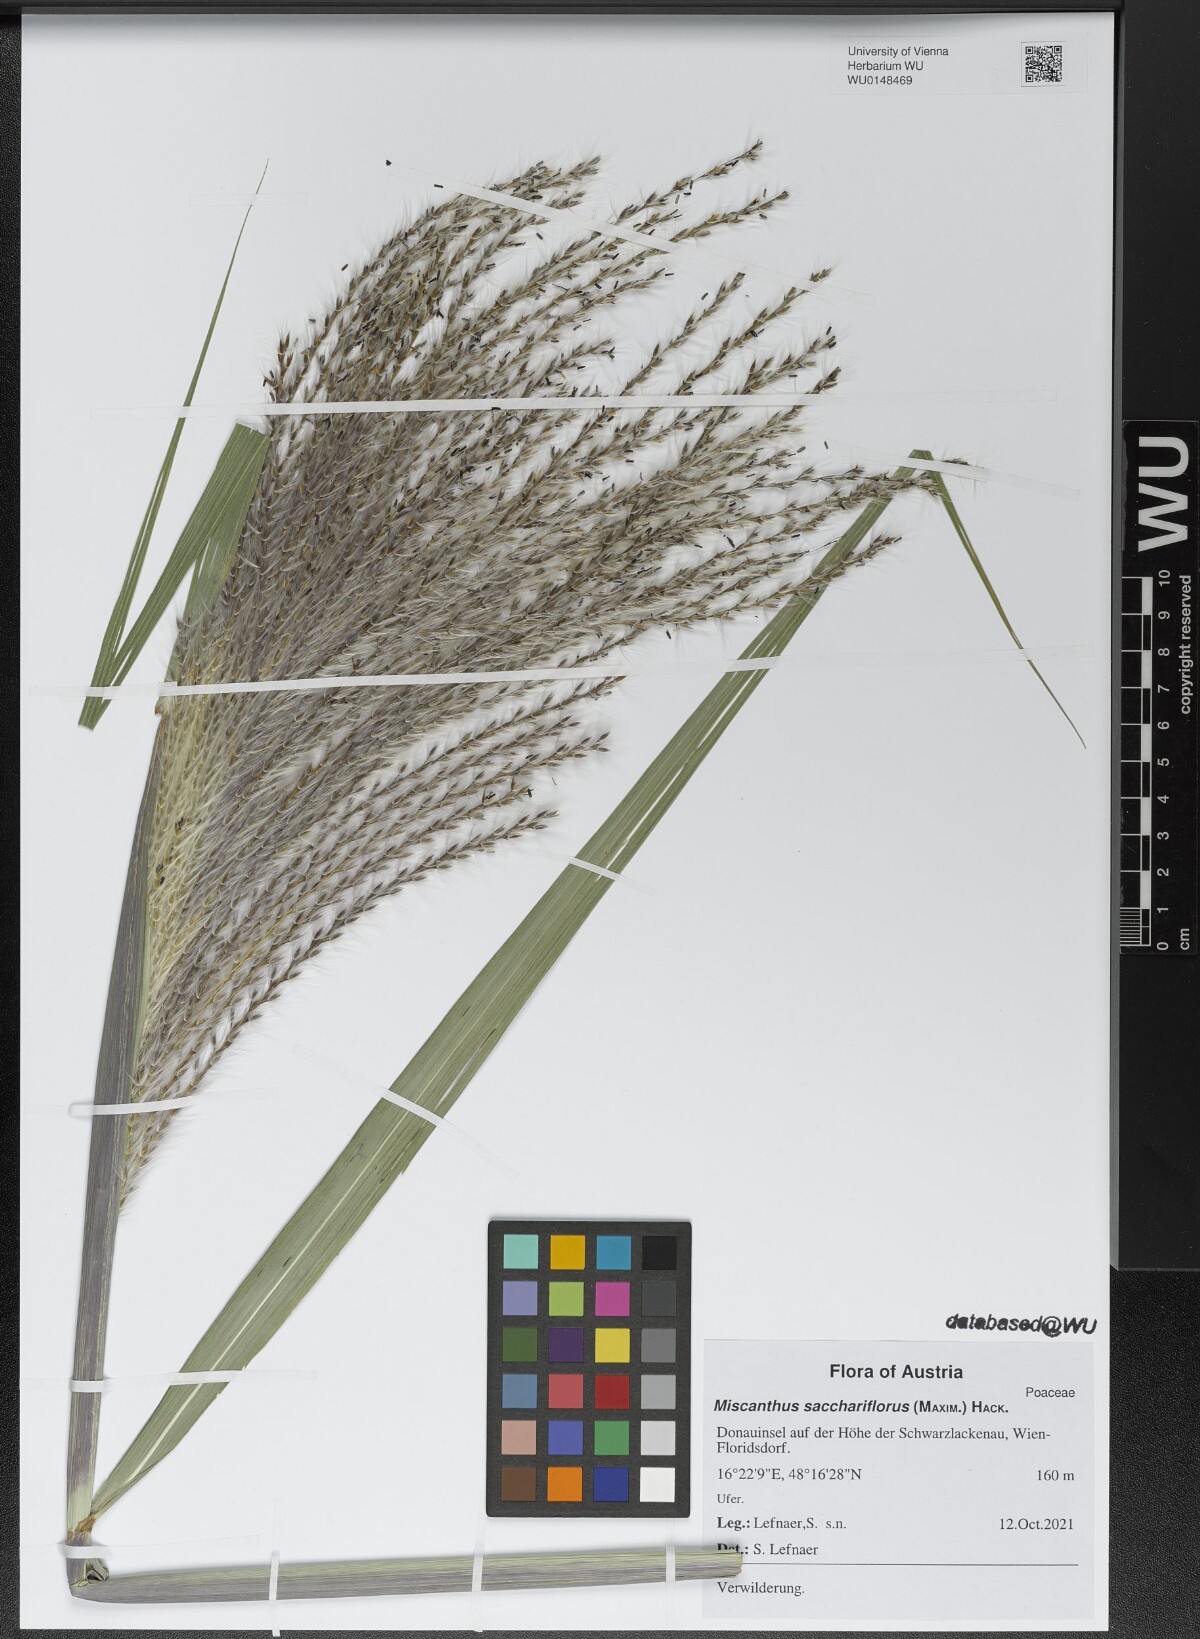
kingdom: Plantae
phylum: Tracheophyta
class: Liliopsida
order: Poales
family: Poaceae
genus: Miscanthus
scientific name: Miscanthus sacchariflorus
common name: Amur silver grass
